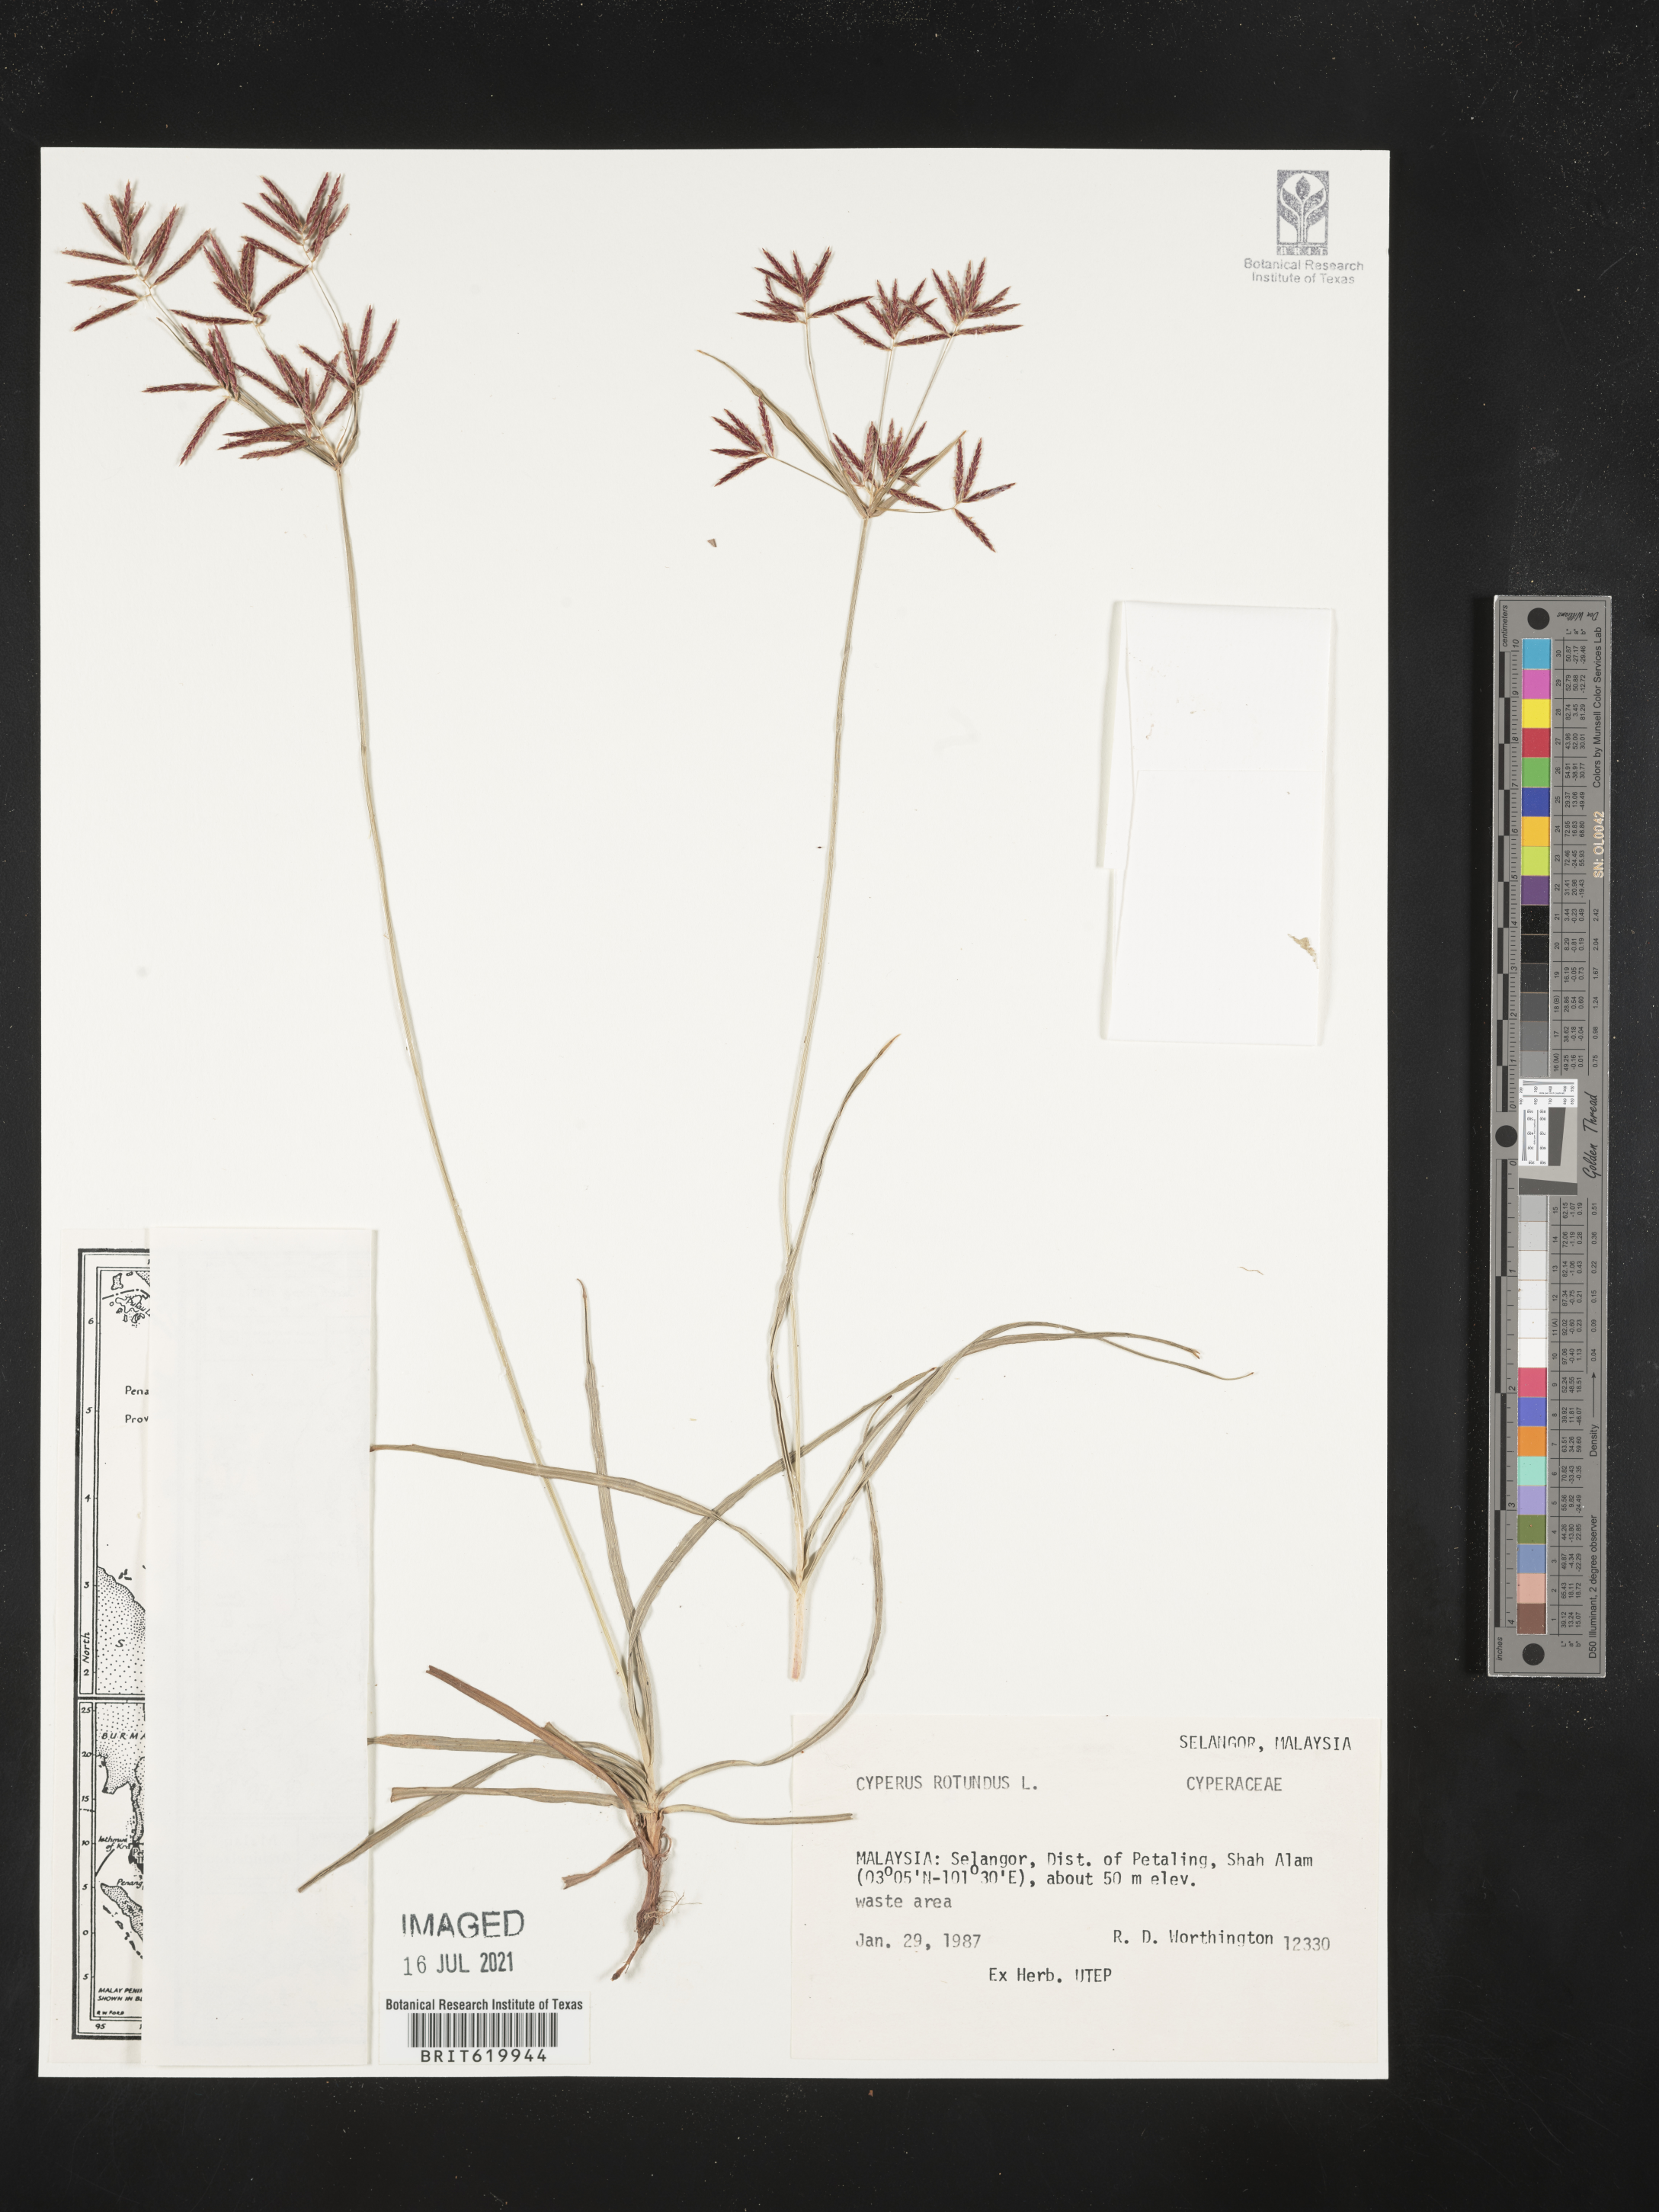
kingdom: Plantae
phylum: Tracheophyta
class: Liliopsida
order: Poales
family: Cyperaceae
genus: Cyperus
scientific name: Cyperus rotundus
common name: Nutgrass
